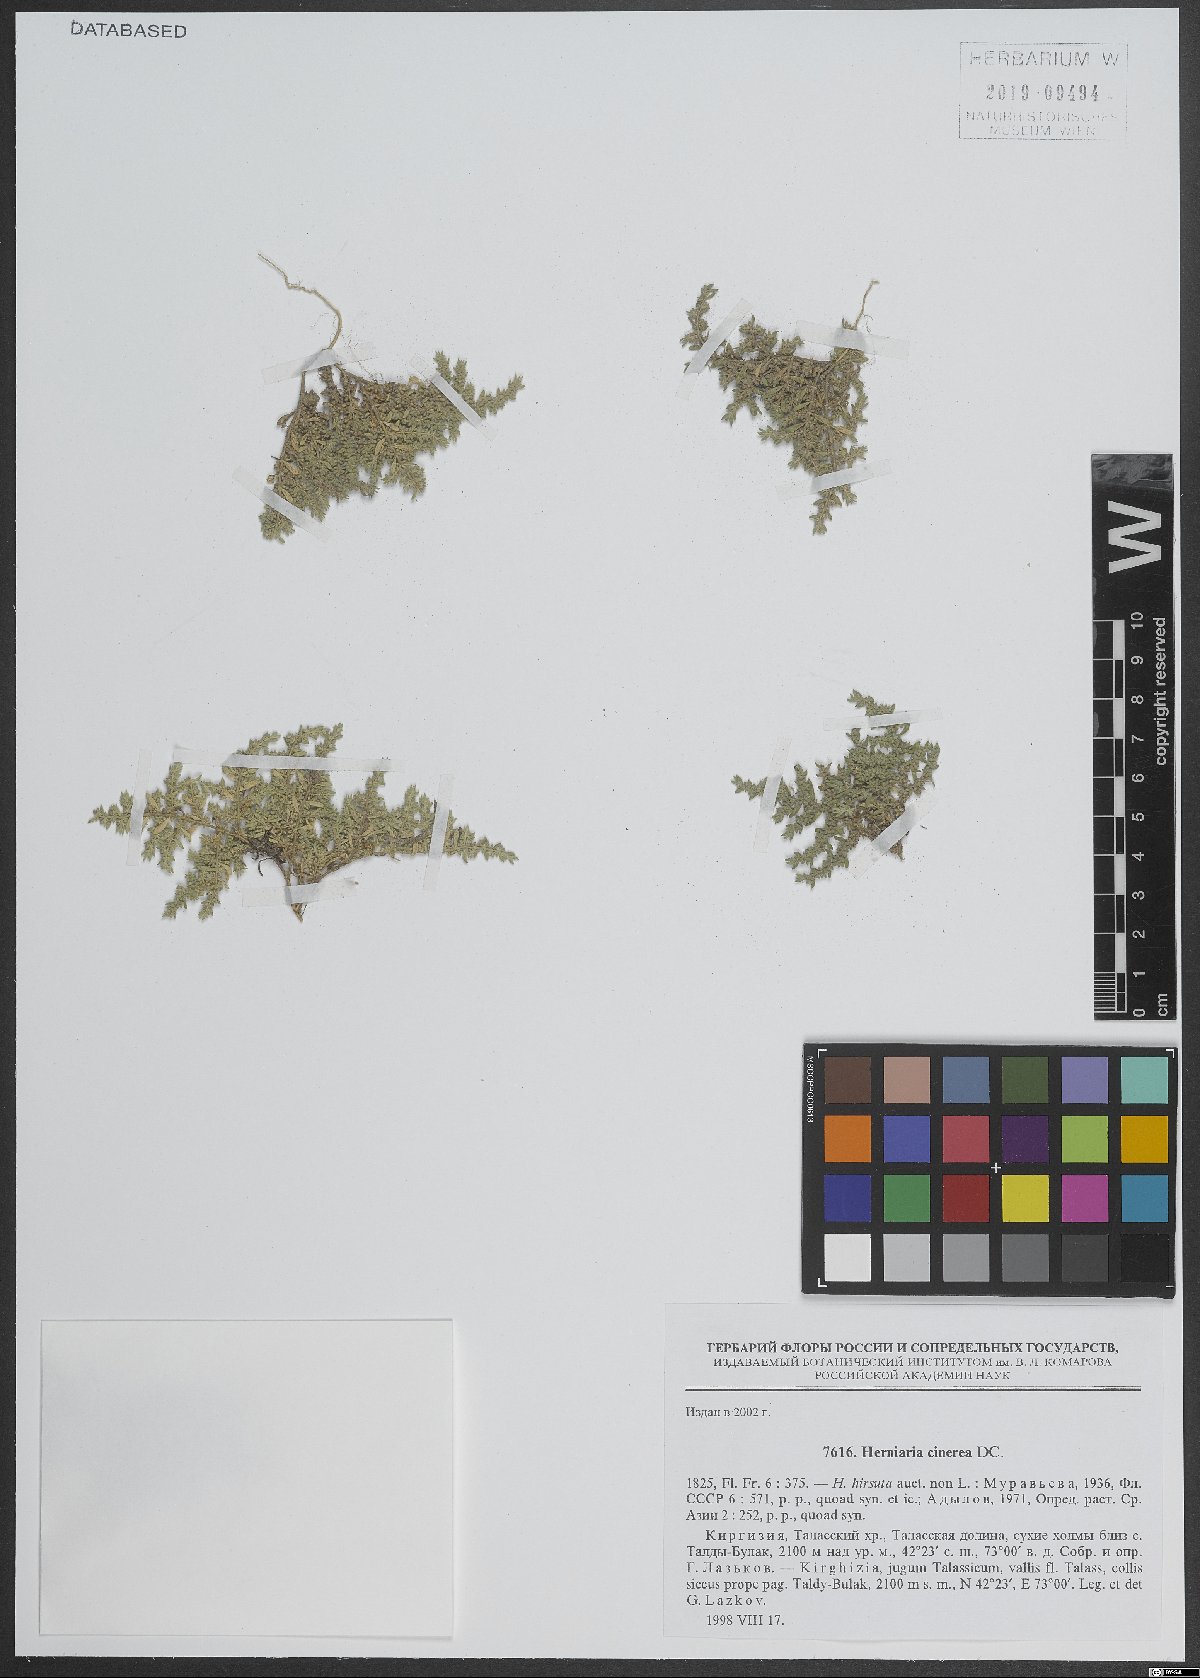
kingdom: Plantae
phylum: Tracheophyta
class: Magnoliopsida
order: Caryophyllales
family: Caryophyllaceae
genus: Herniaria
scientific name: Herniaria cinerea
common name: Hairy rupturewort
